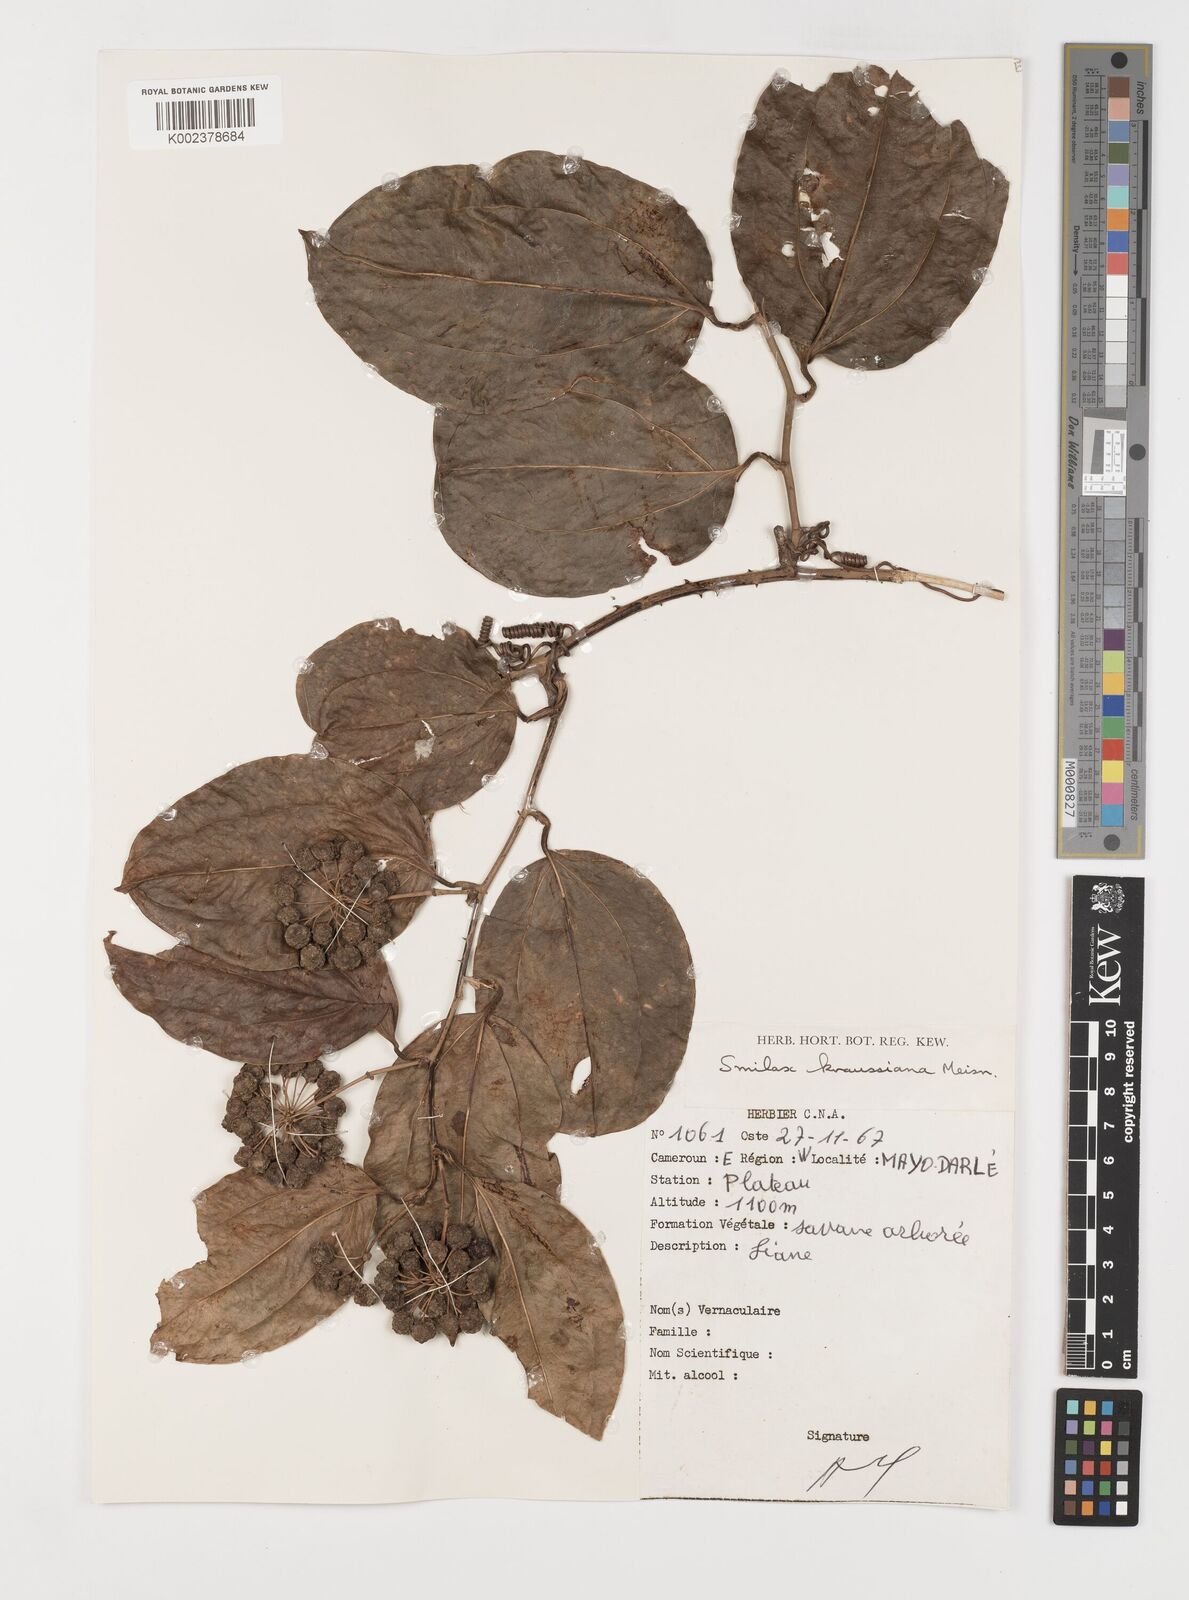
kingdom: Plantae
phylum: Tracheophyta
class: Liliopsida
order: Liliales
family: Smilacaceae
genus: Smilax
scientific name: Smilax anceps
